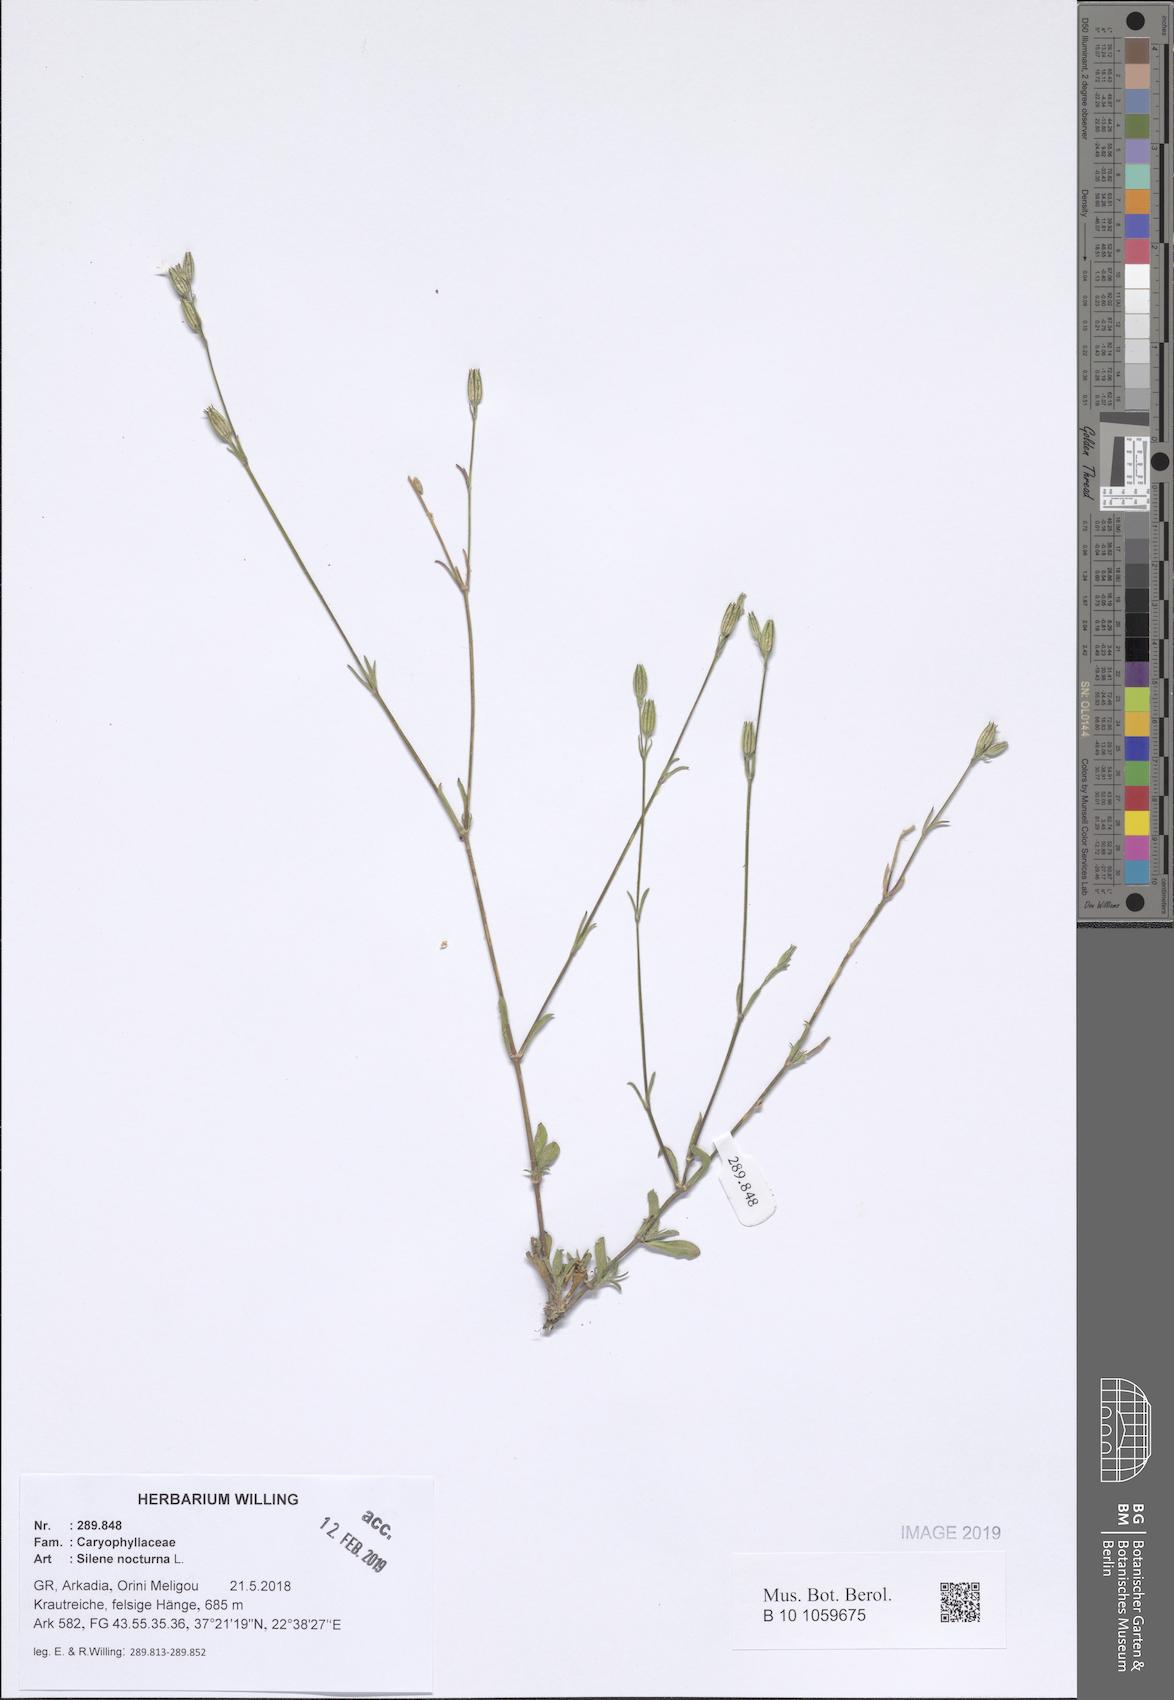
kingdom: Plantae
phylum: Tracheophyta
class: Magnoliopsida
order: Caryophyllales
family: Caryophyllaceae
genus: Silene
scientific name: Silene nocturna
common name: Mediterranean catchfly
